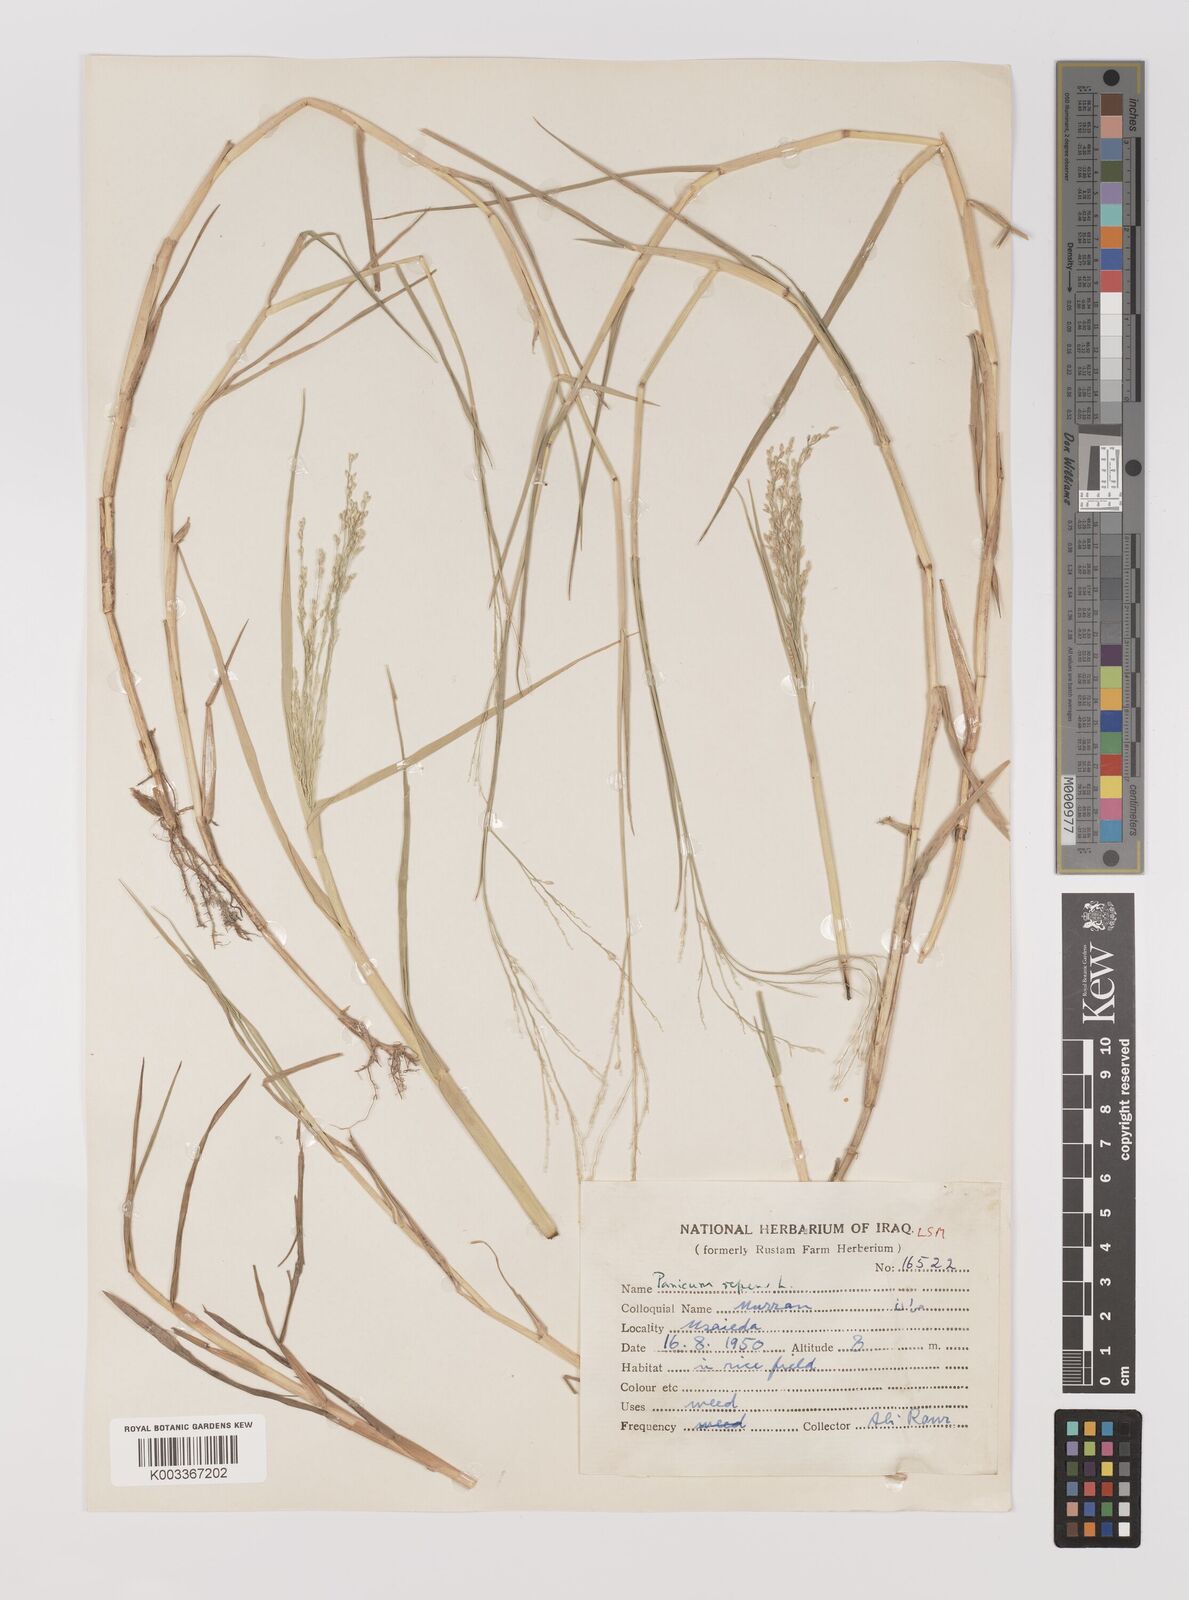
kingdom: Plantae
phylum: Tracheophyta
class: Liliopsida
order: Poales
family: Poaceae
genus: Panicum
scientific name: Panicum repens
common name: Torpedo grass
